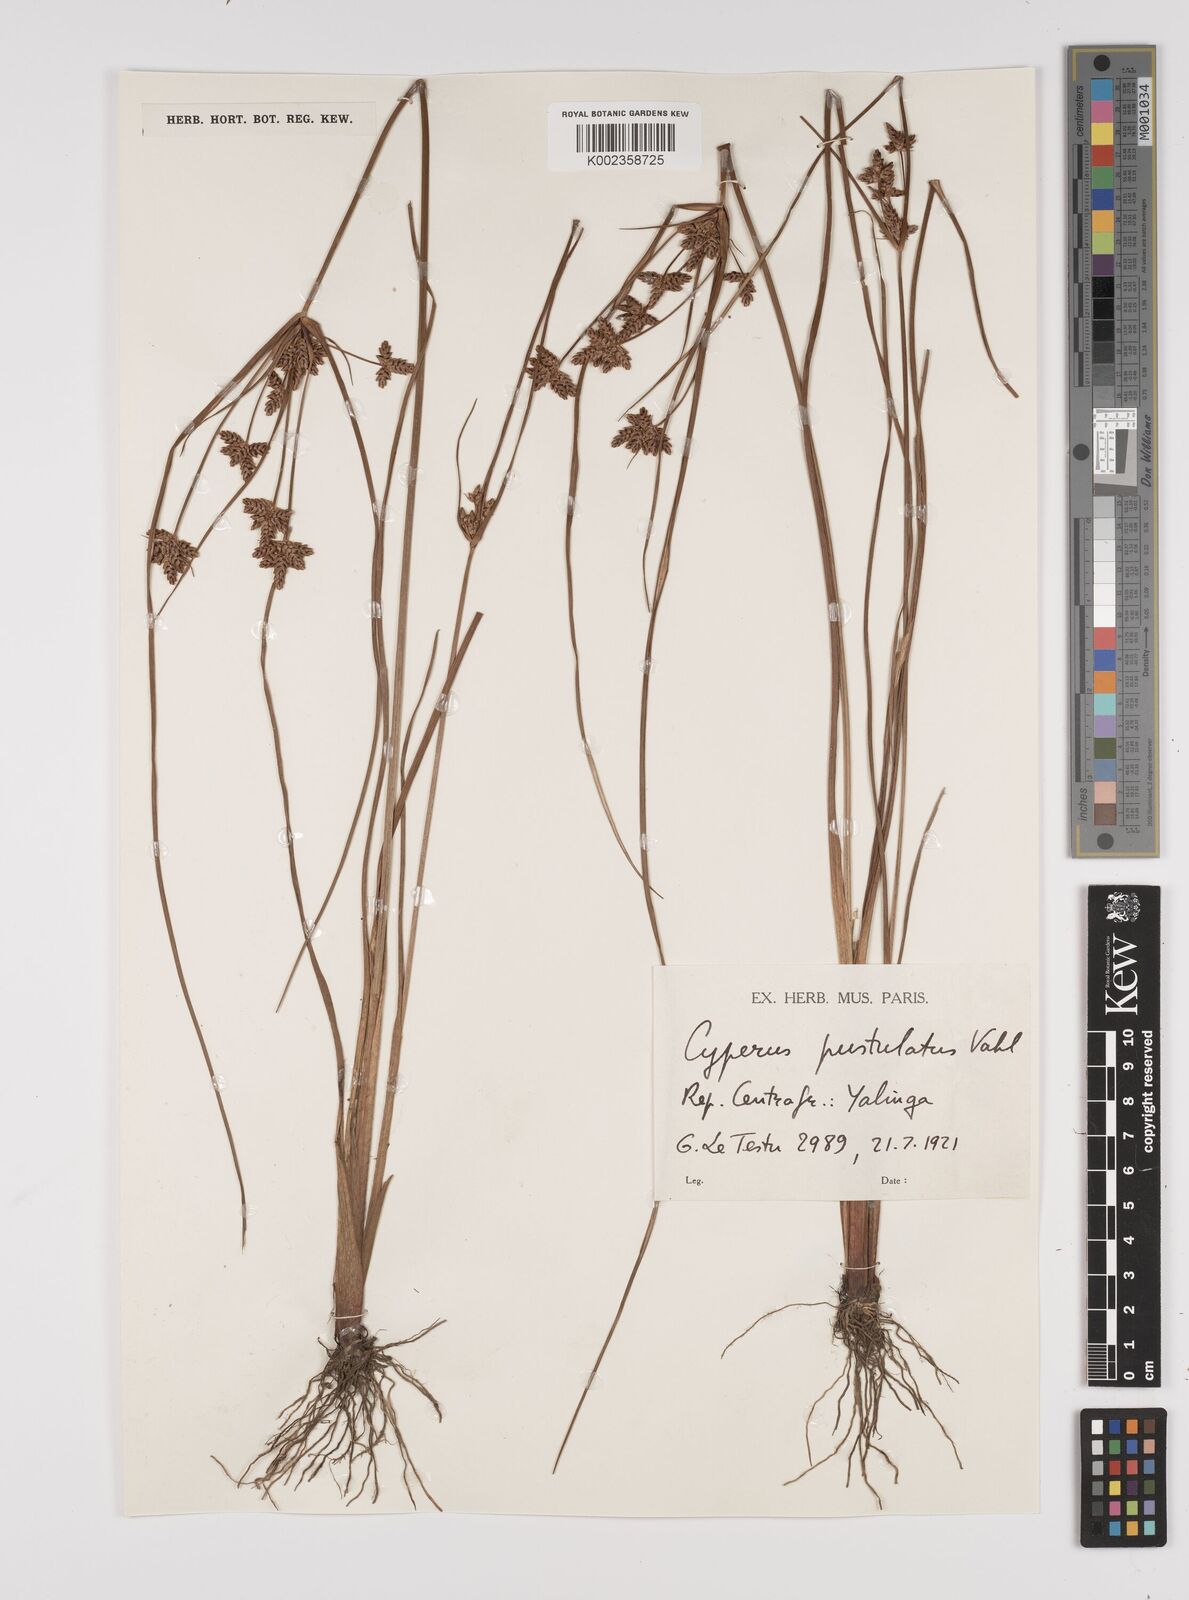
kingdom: Plantae
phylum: Tracheophyta
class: Liliopsida
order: Poales
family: Cyperaceae
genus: Cyperus
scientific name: Cyperus pustulatus
